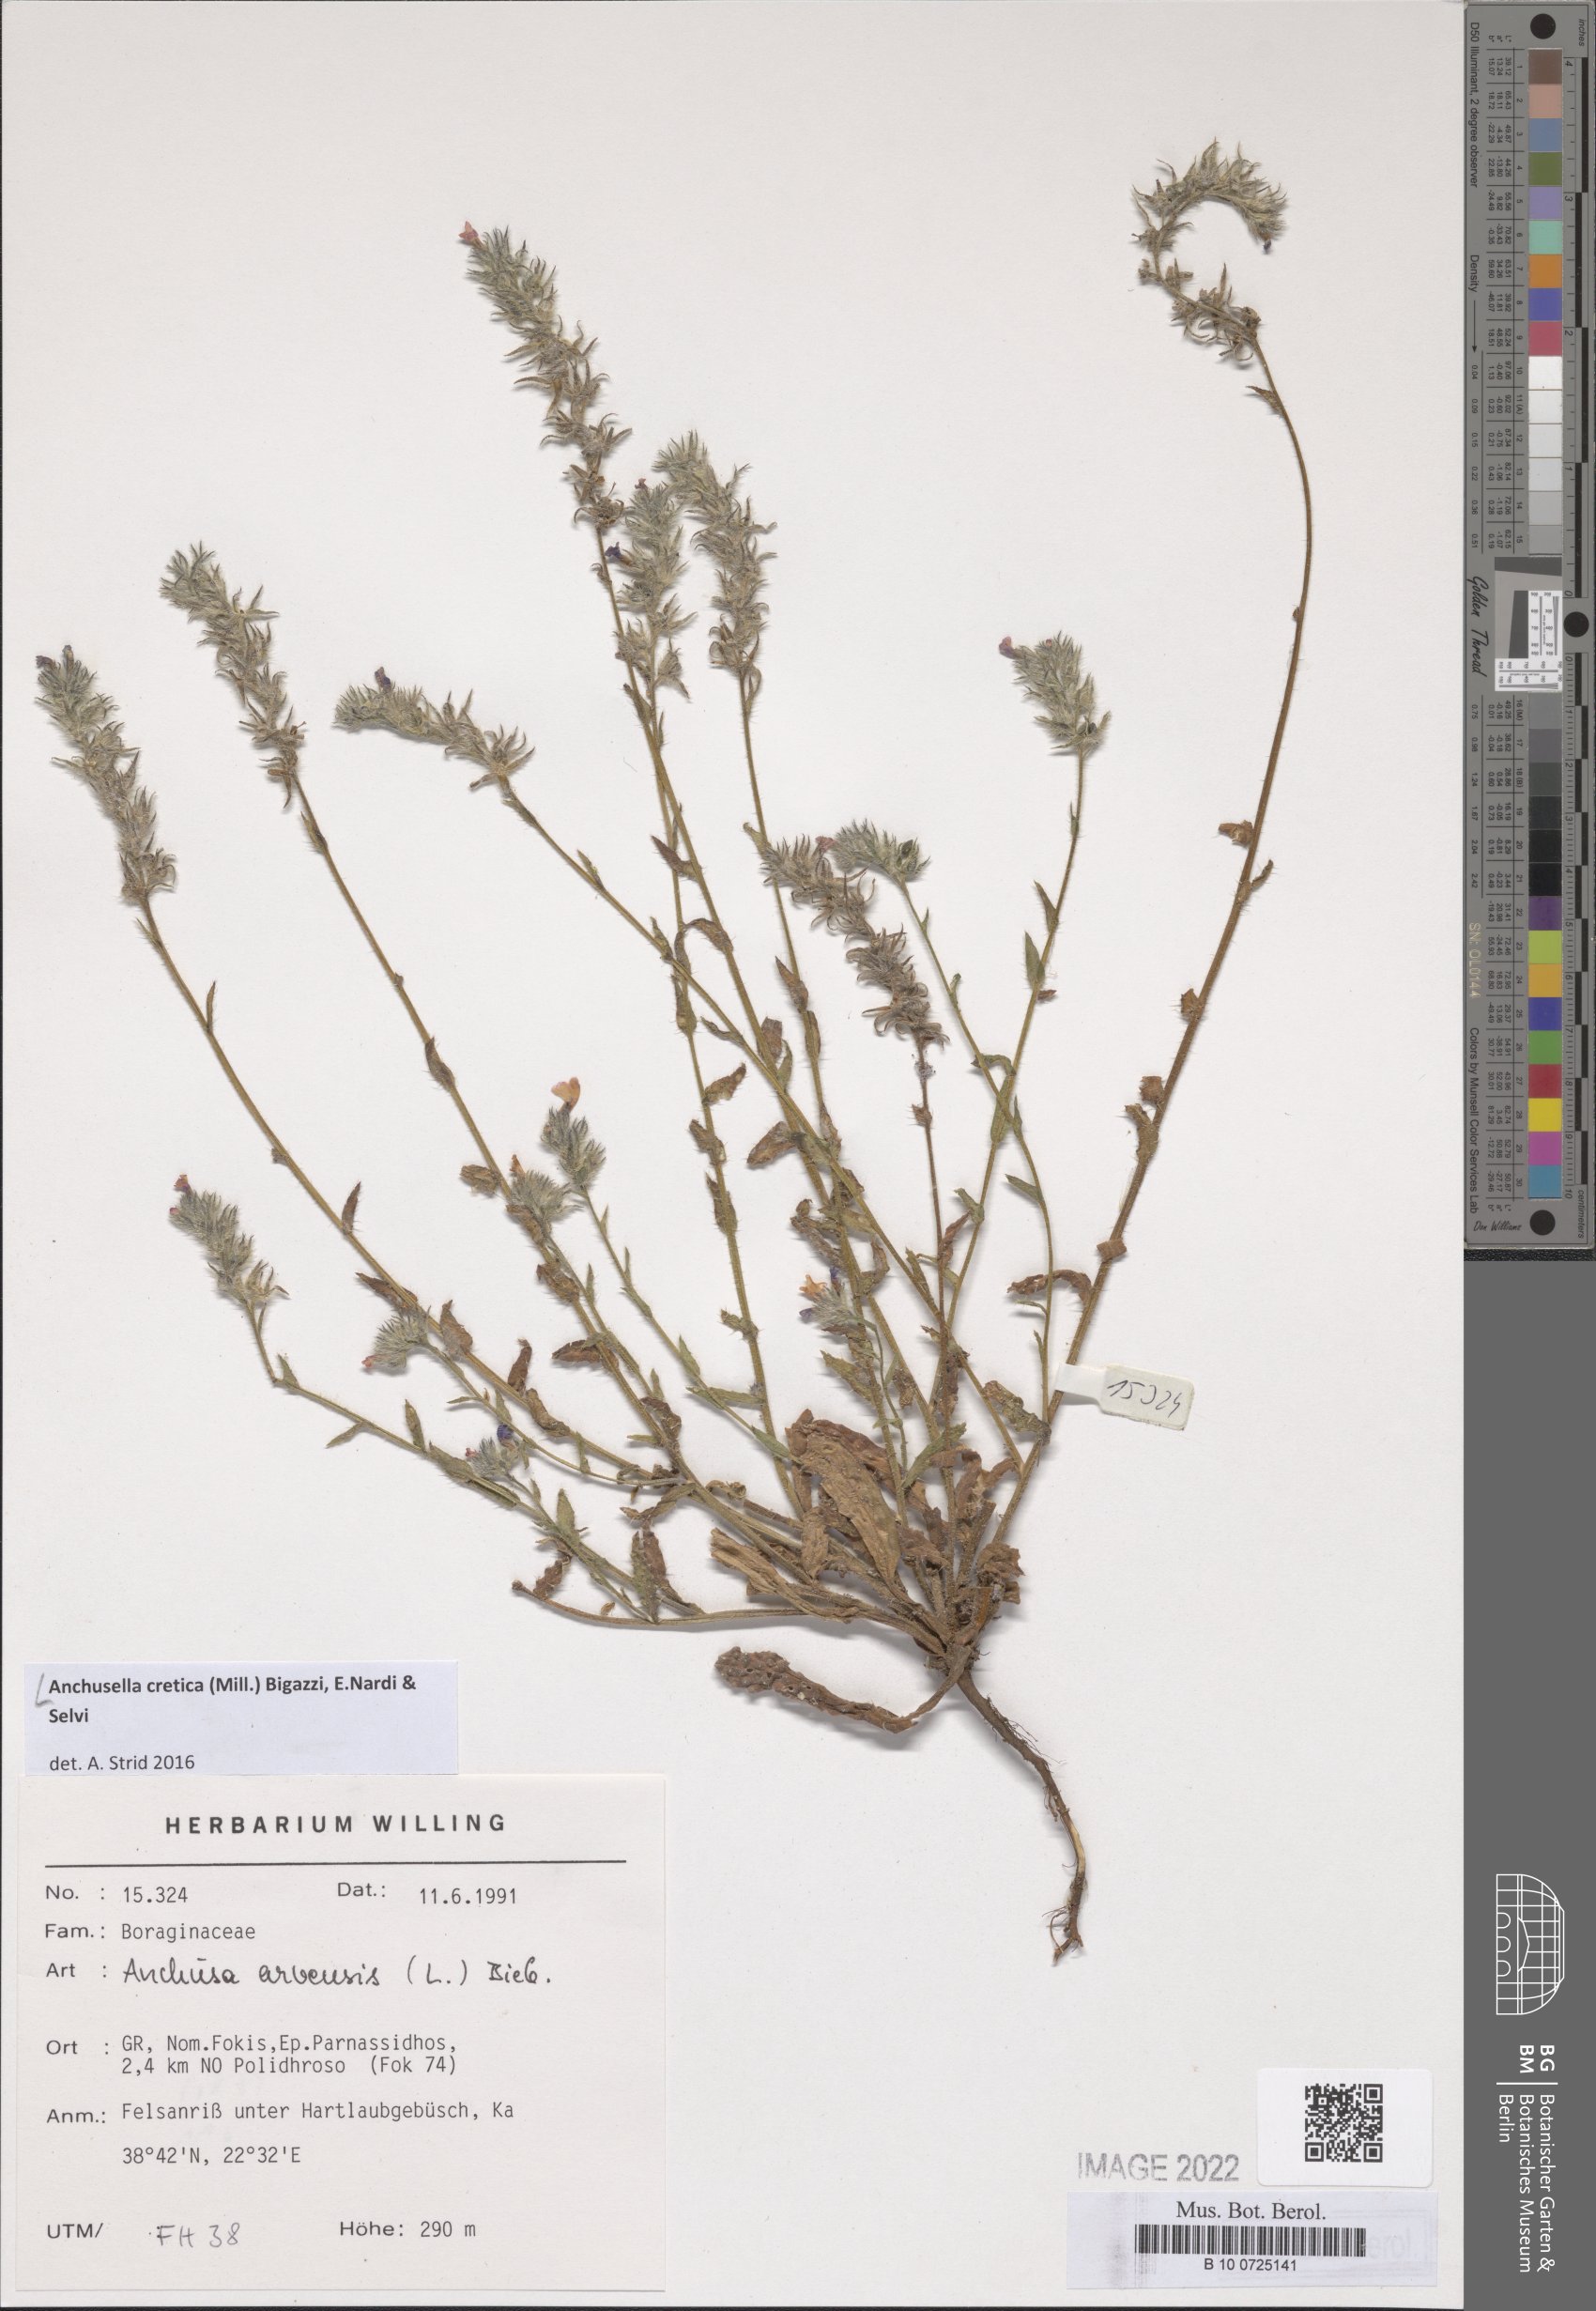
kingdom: Plantae
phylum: Tracheophyta
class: Magnoliopsida
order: Boraginales
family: Boraginaceae
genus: Anchusella
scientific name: Anchusella cretica
